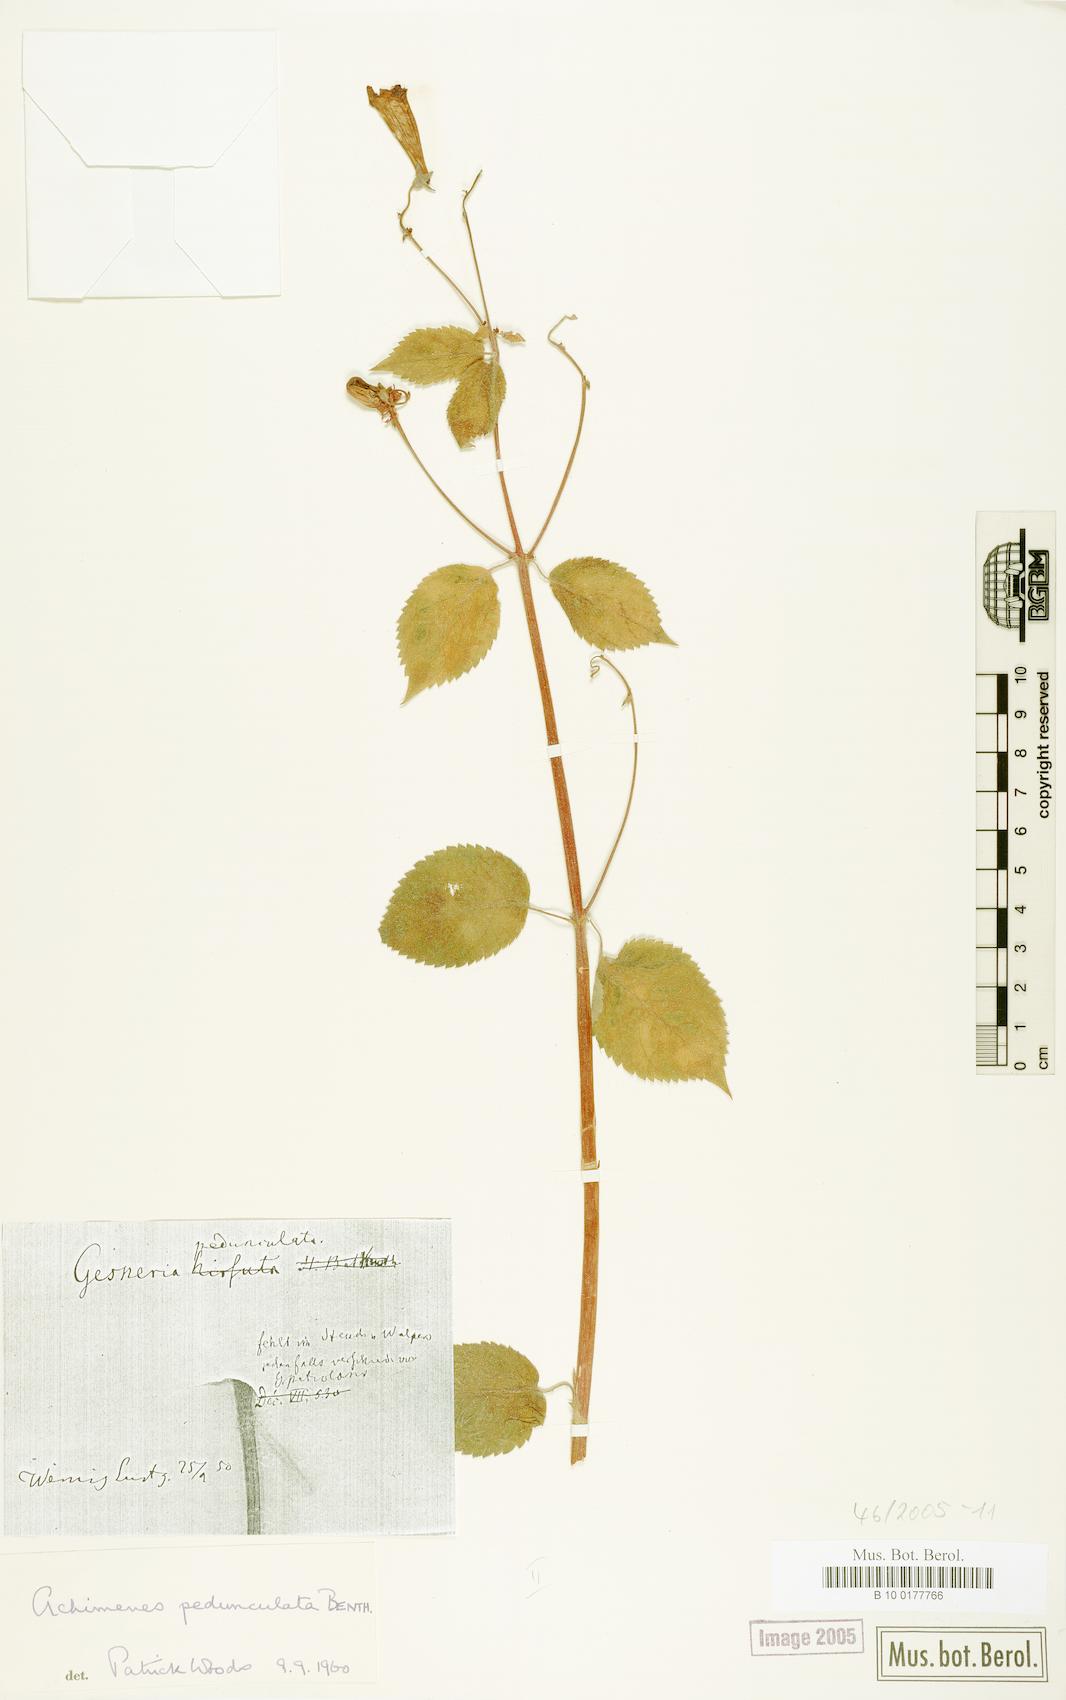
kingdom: Plantae
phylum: Tracheophyta
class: Magnoliopsida
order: Lamiales
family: Gesneriaceae
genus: Achimenes
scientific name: Achimenes pedunculata
